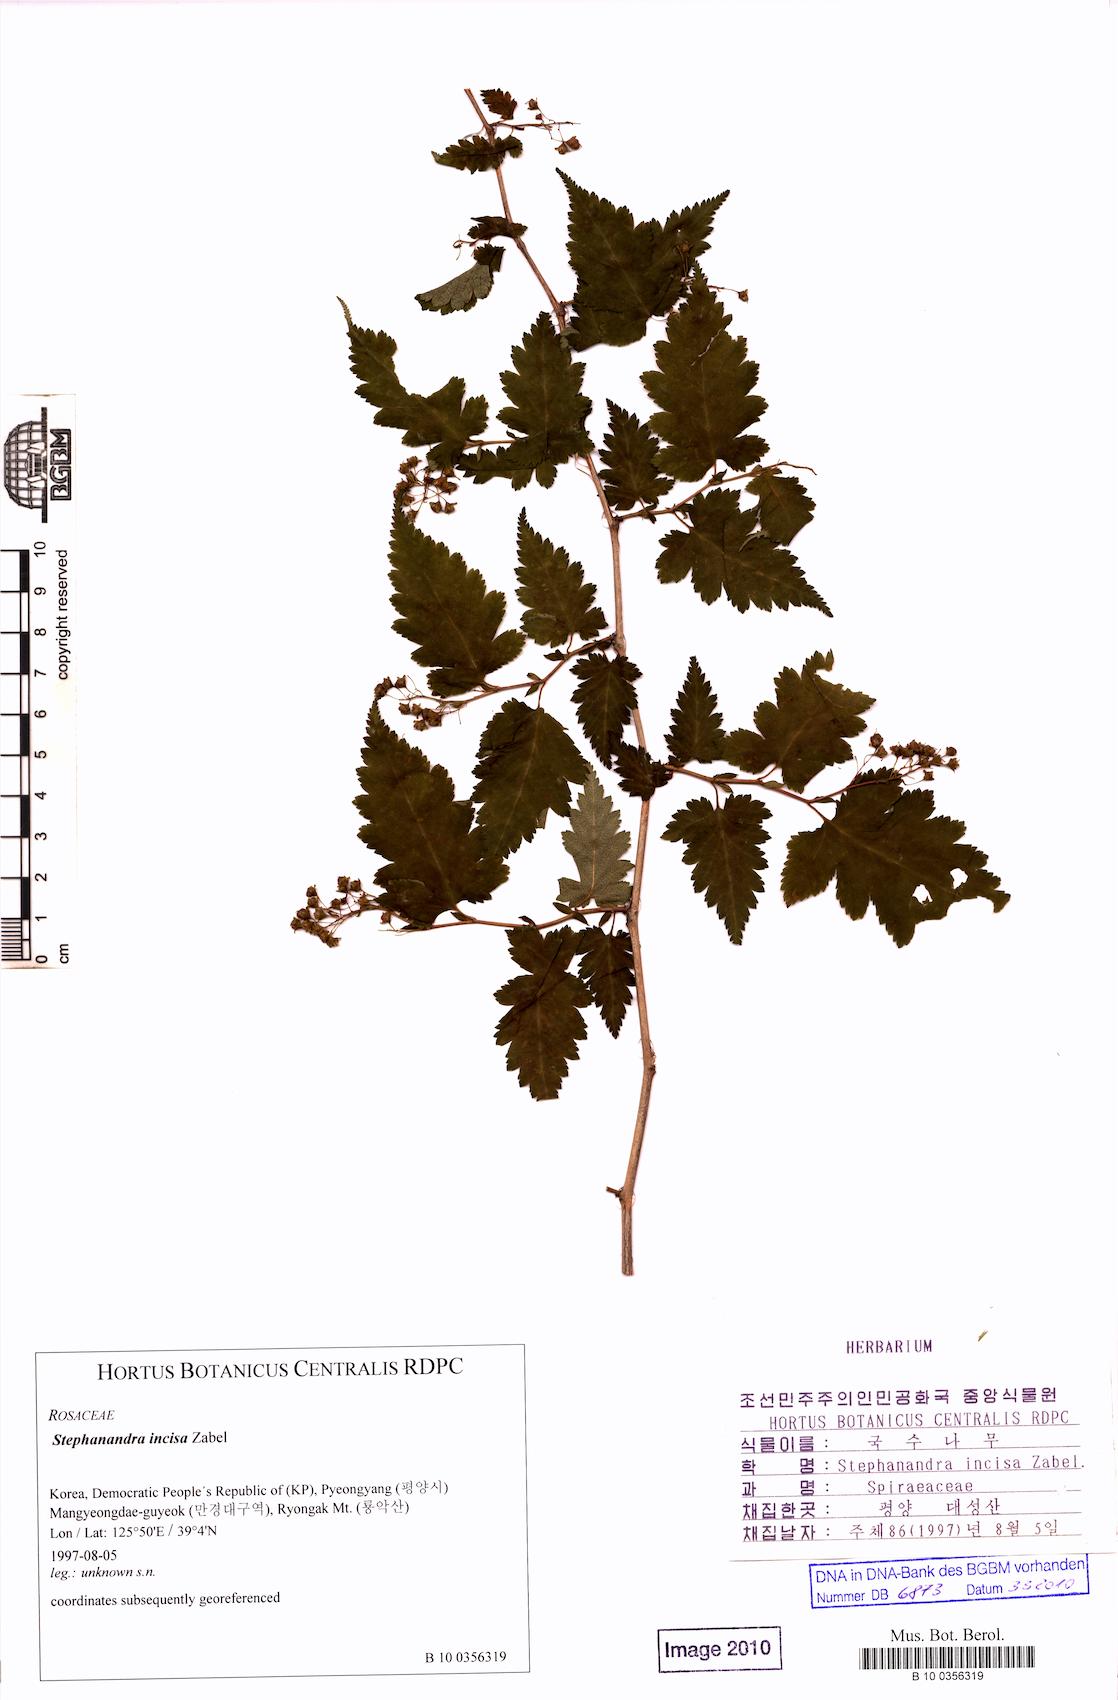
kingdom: Plantae
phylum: Tracheophyta
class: Magnoliopsida
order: Rosales
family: Rosaceae
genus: Neillia
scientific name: Neillia incisa
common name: Laceshrub
